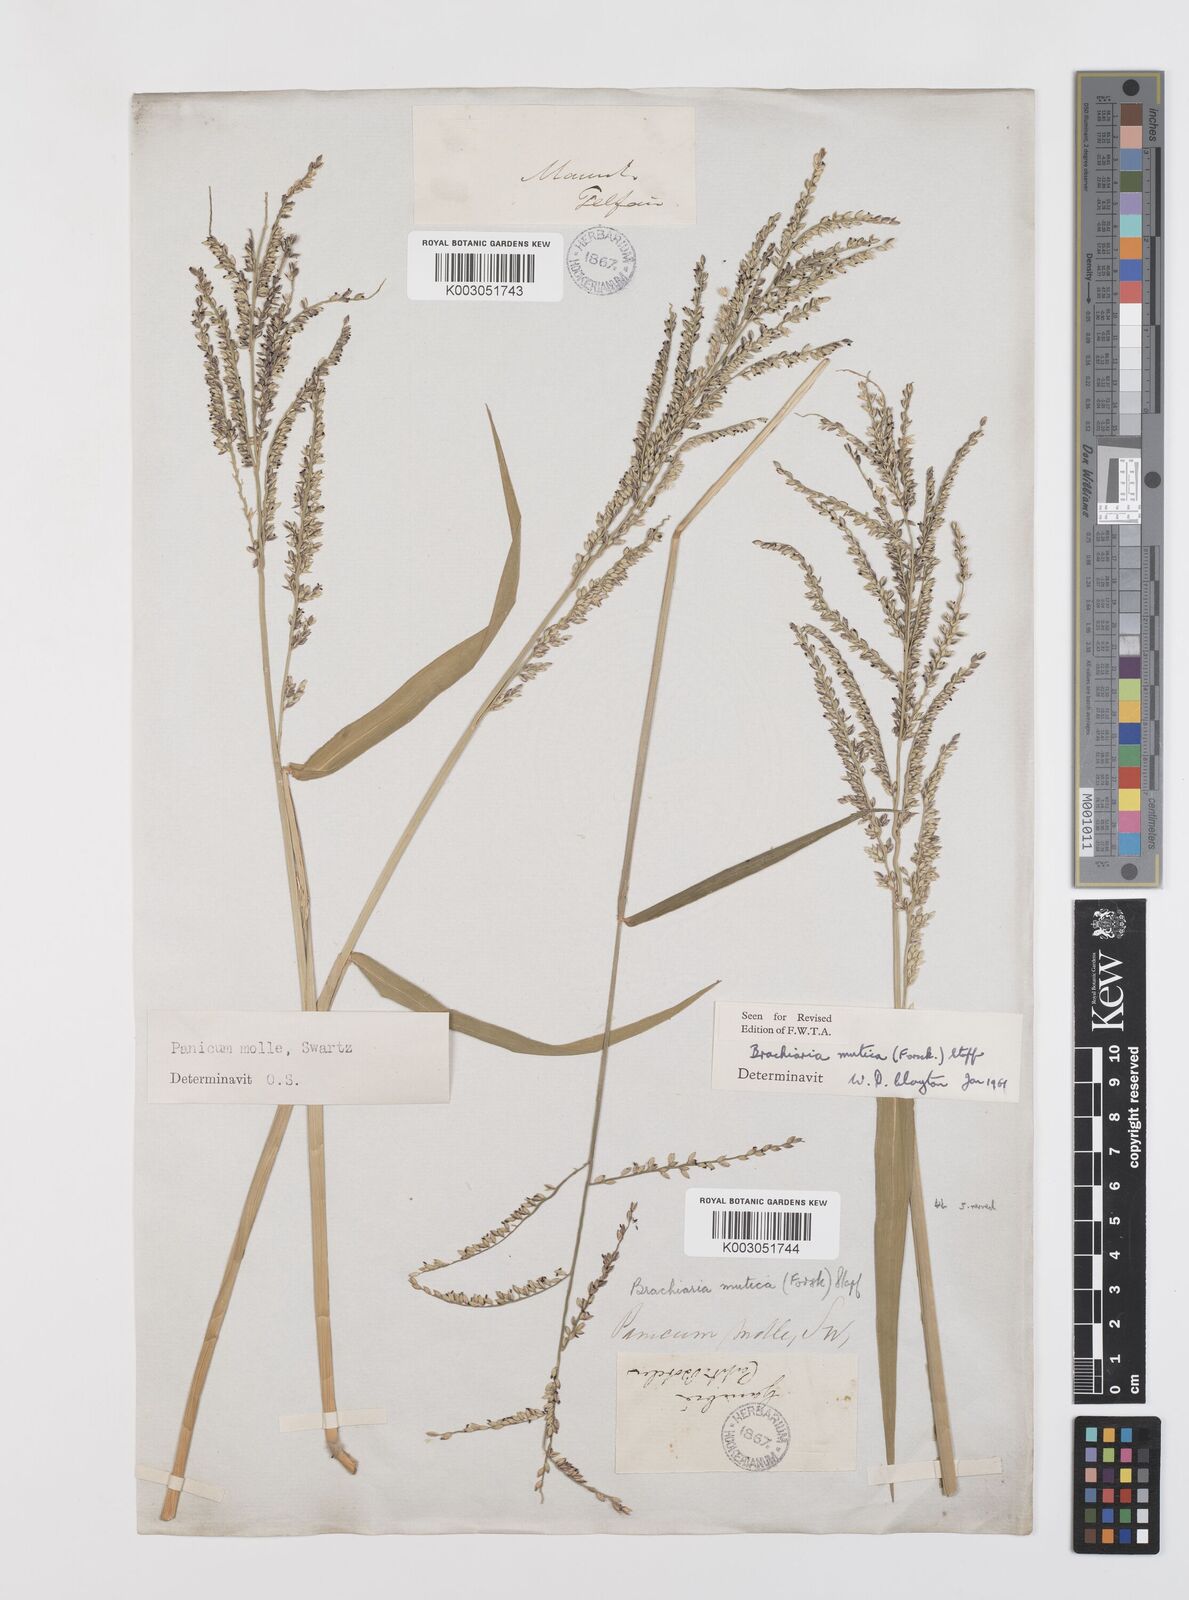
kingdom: Plantae
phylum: Tracheophyta
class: Liliopsida
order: Poales
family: Poaceae
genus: Urochloa
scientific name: Urochloa mutica
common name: Para grass
